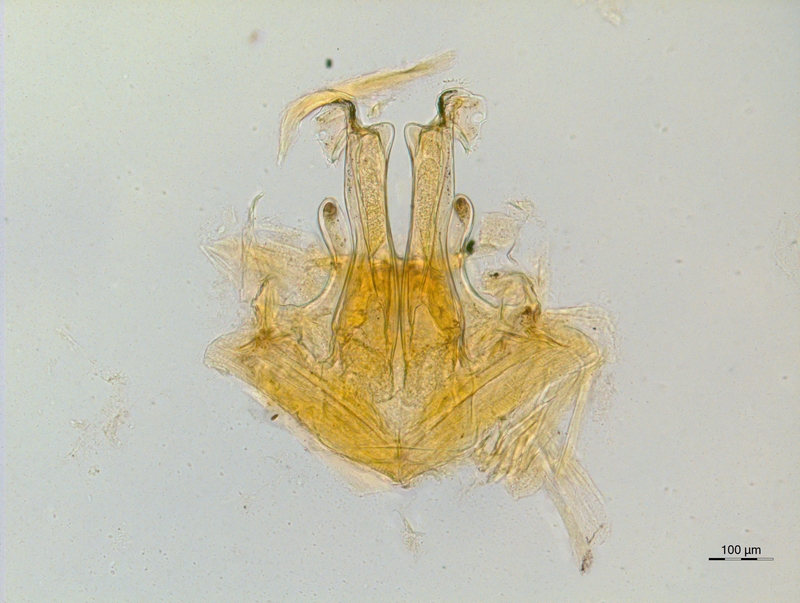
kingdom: Animalia
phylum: Arthropoda
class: Diplopoda
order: Chordeumatida
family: Craspedosomatidae
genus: Rothenbuehleria
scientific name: Rothenbuehleria tirolense
